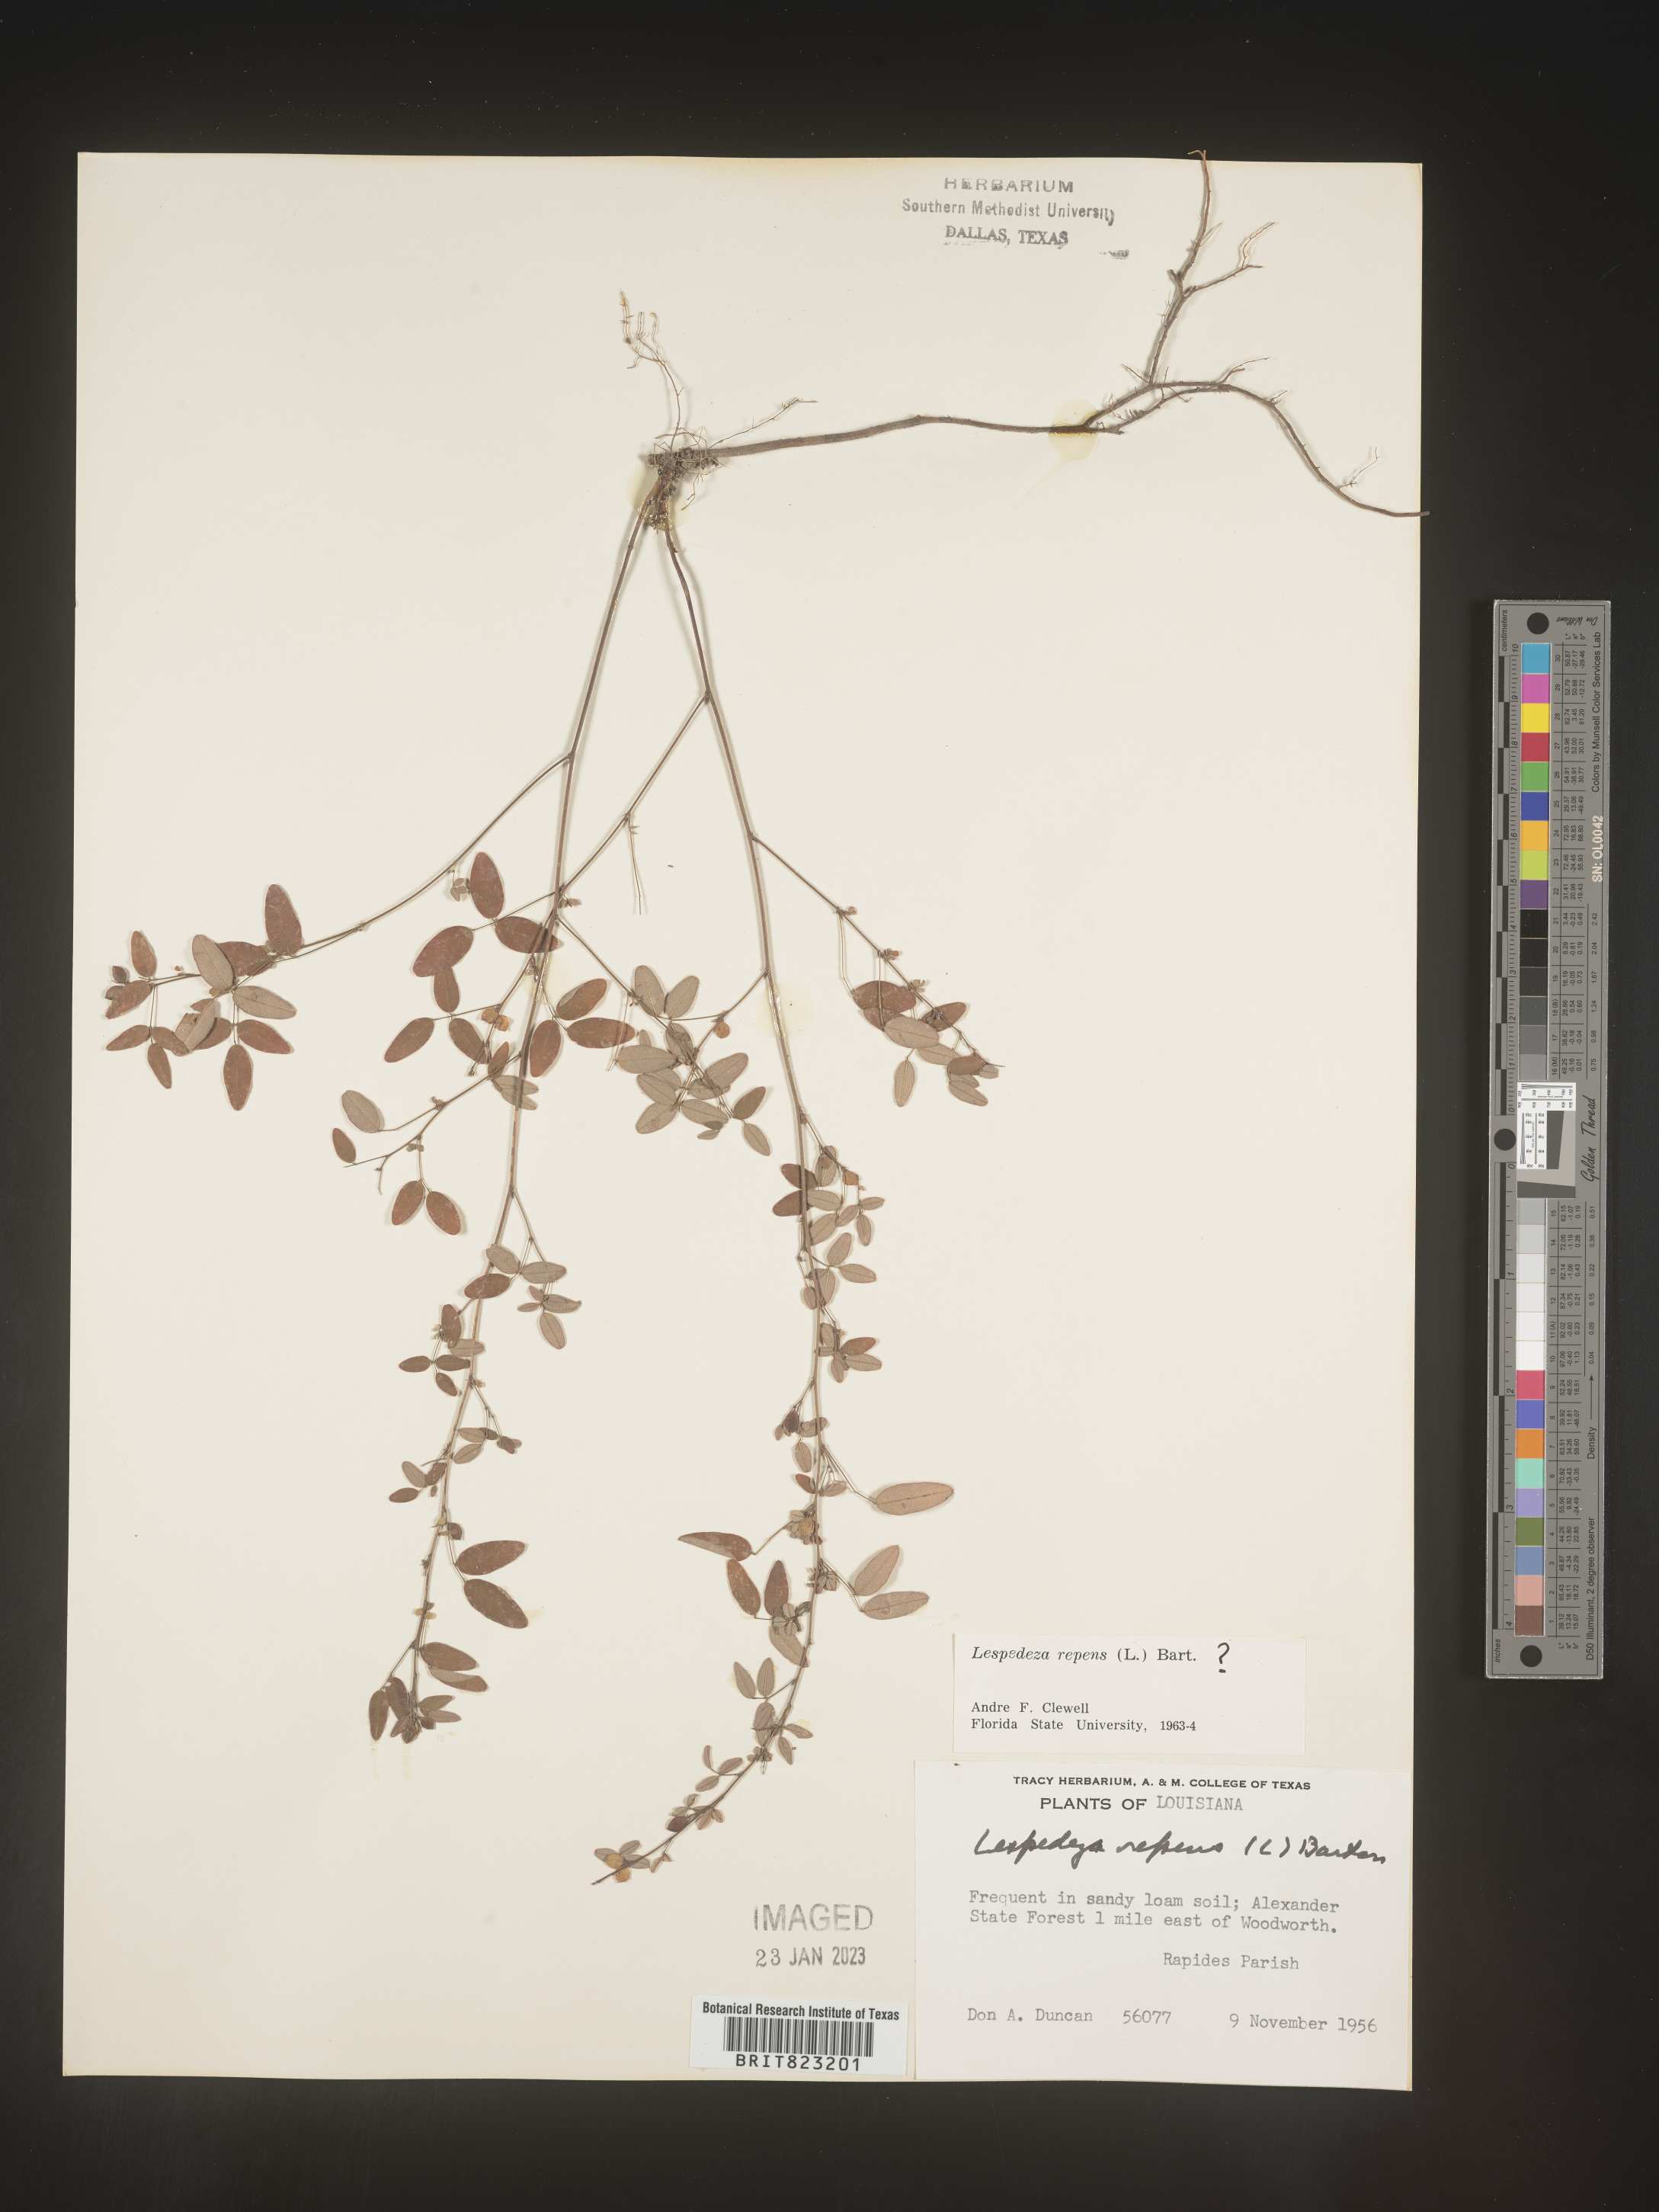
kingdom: Plantae
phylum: Tracheophyta
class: Magnoliopsida
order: Fabales
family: Fabaceae
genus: Lespedeza
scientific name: Lespedeza repens
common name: Creeping bush-clover
